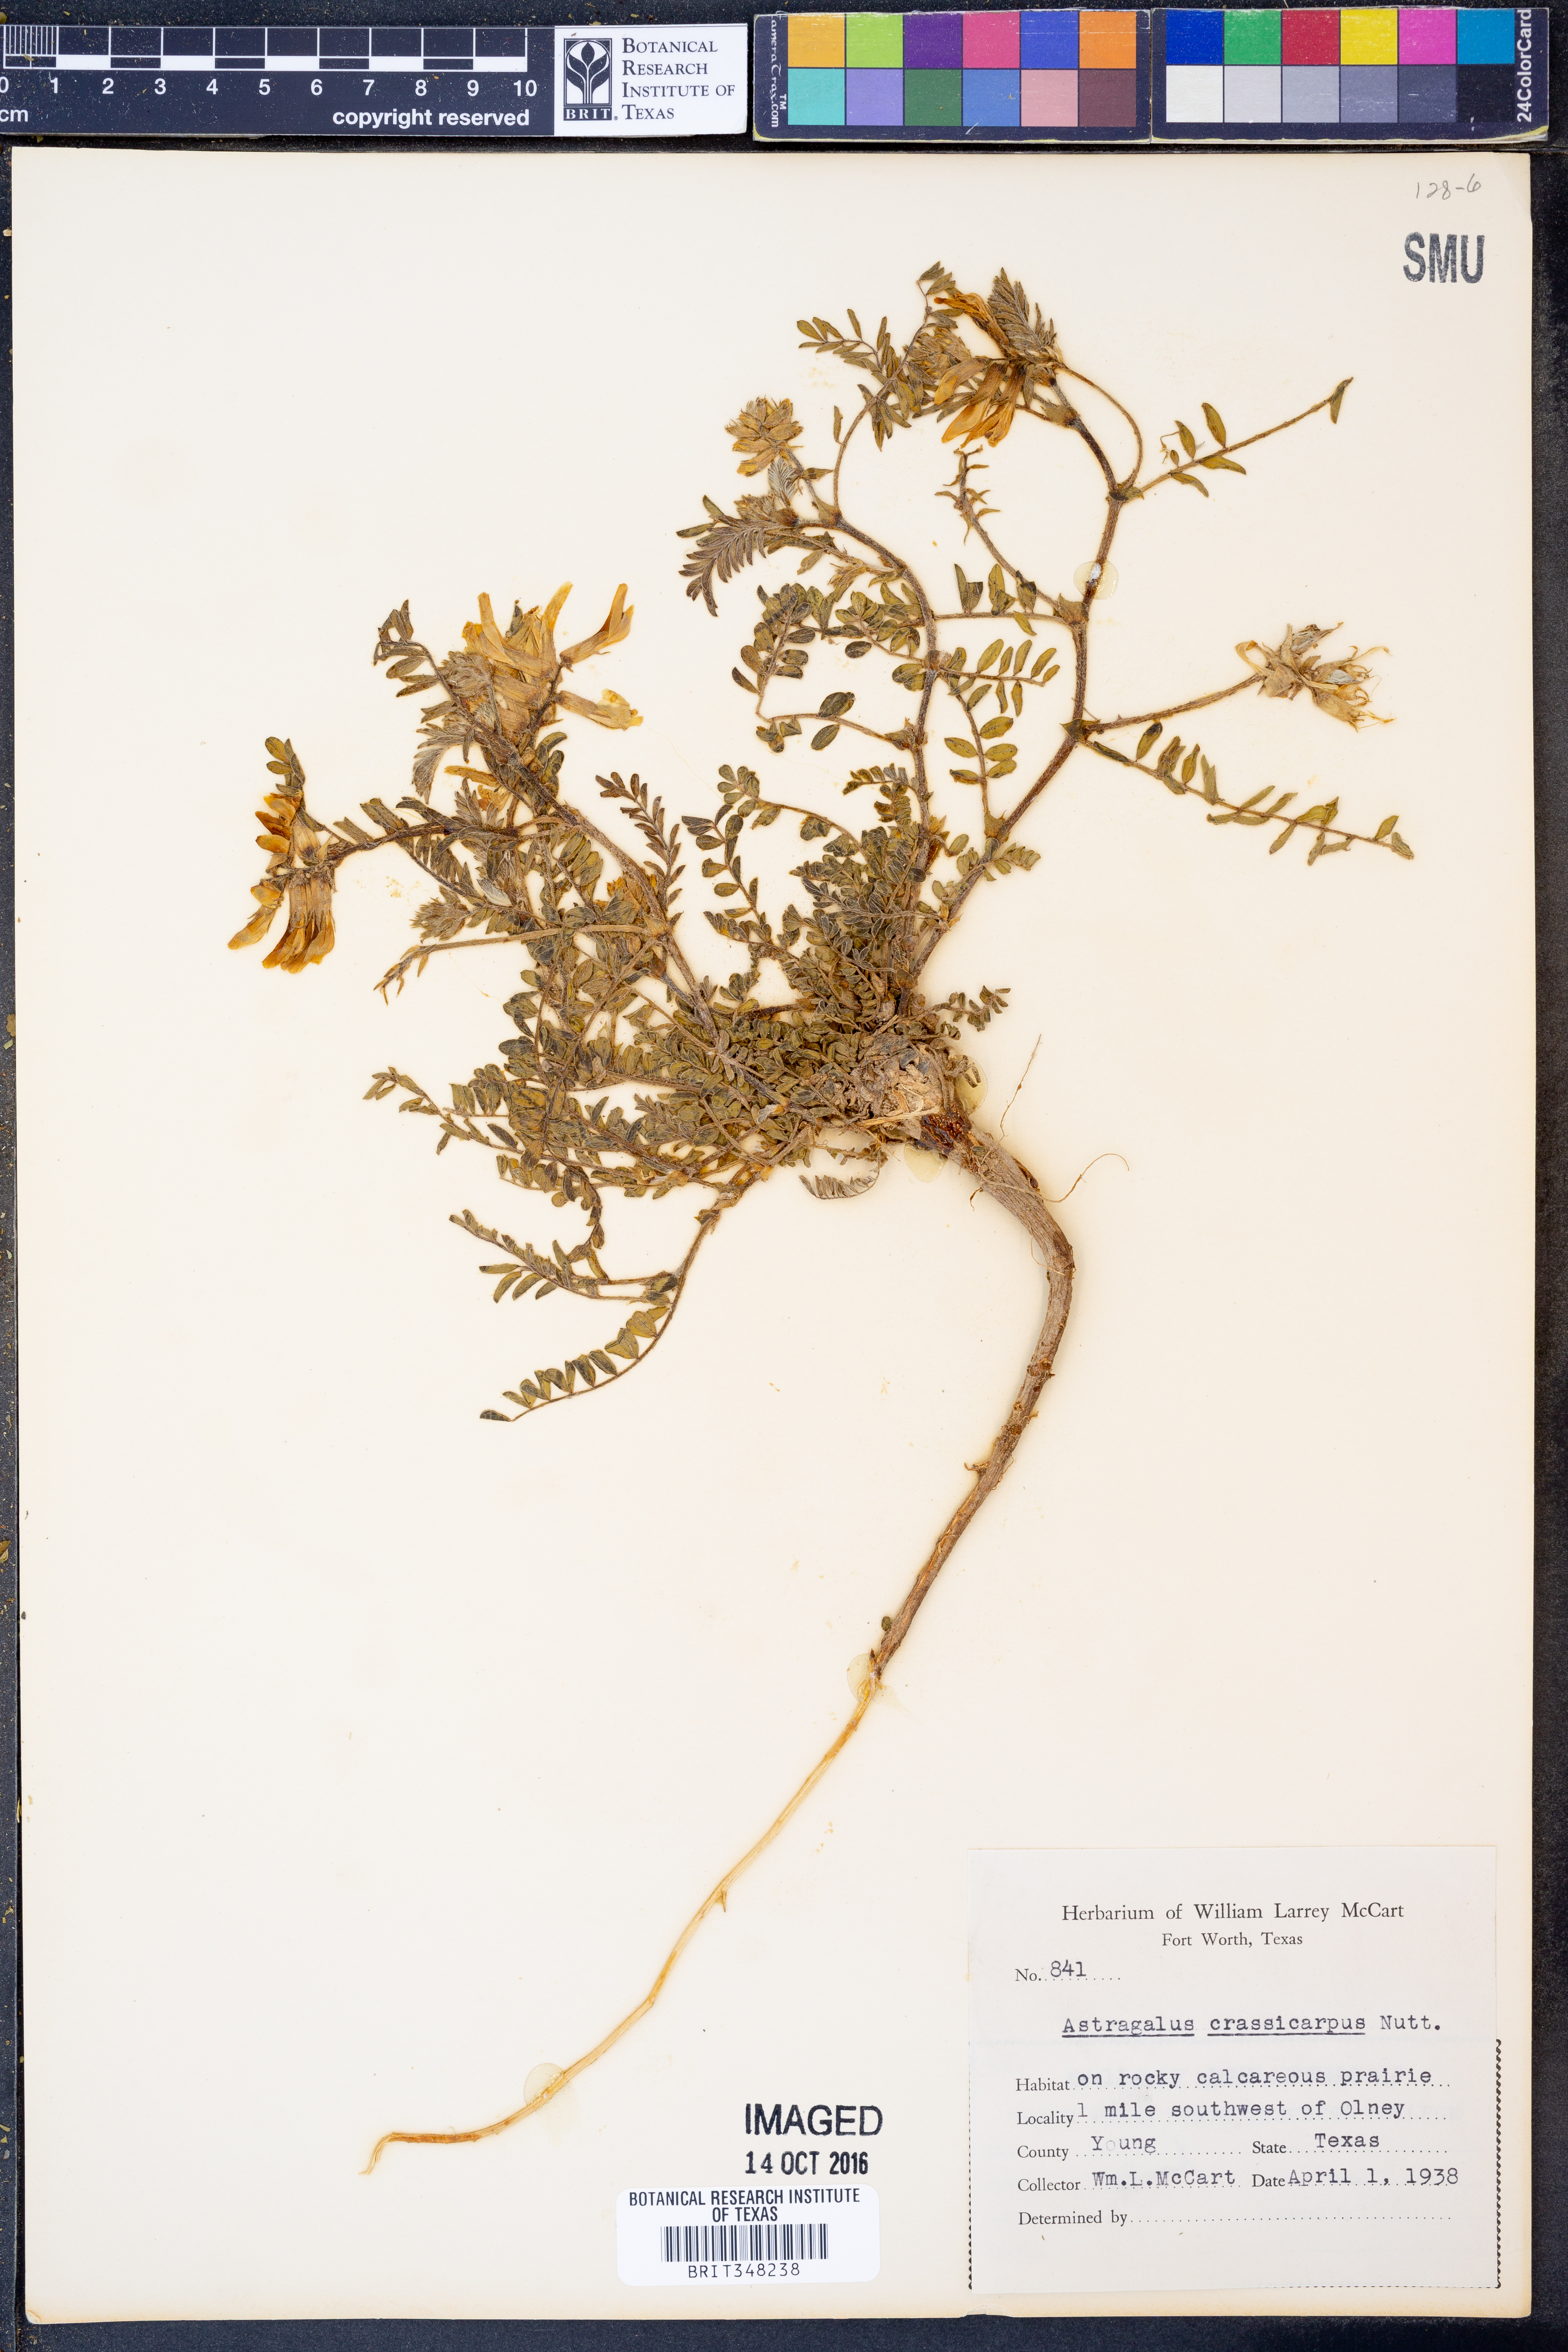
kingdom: Plantae
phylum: Tracheophyta
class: Magnoliopsida
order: Fabales
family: Fabaceae
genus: Astragalus
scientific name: Astragalus crassicarpus
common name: Ground-plum milk-vetch
